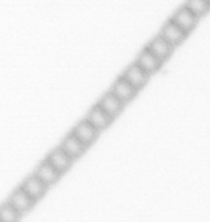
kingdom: Chromista
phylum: Ochrophyta
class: Bacillariophyceae
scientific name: Bacillariophyceae
